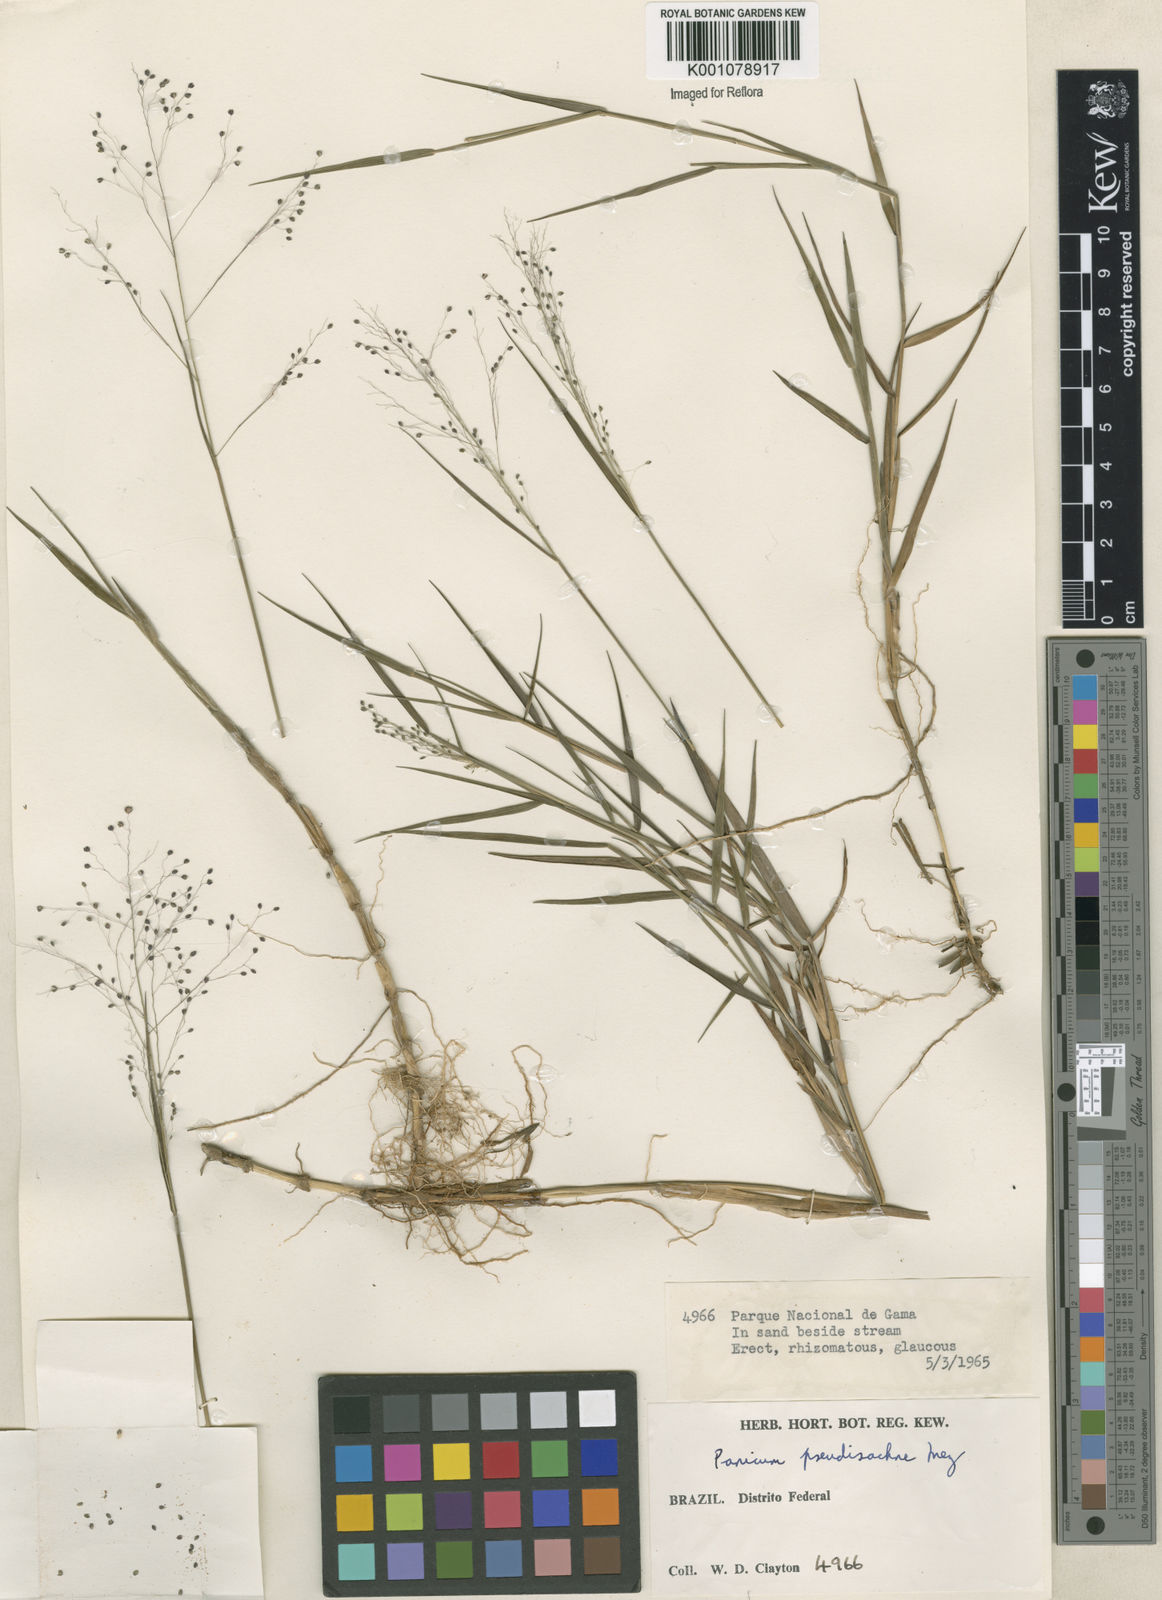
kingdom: Plantae
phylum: Tracheophyta
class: Liliopsida
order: Poales
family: Poaceae
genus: Trichanthecium
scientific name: Trichanthecium cyanescens
